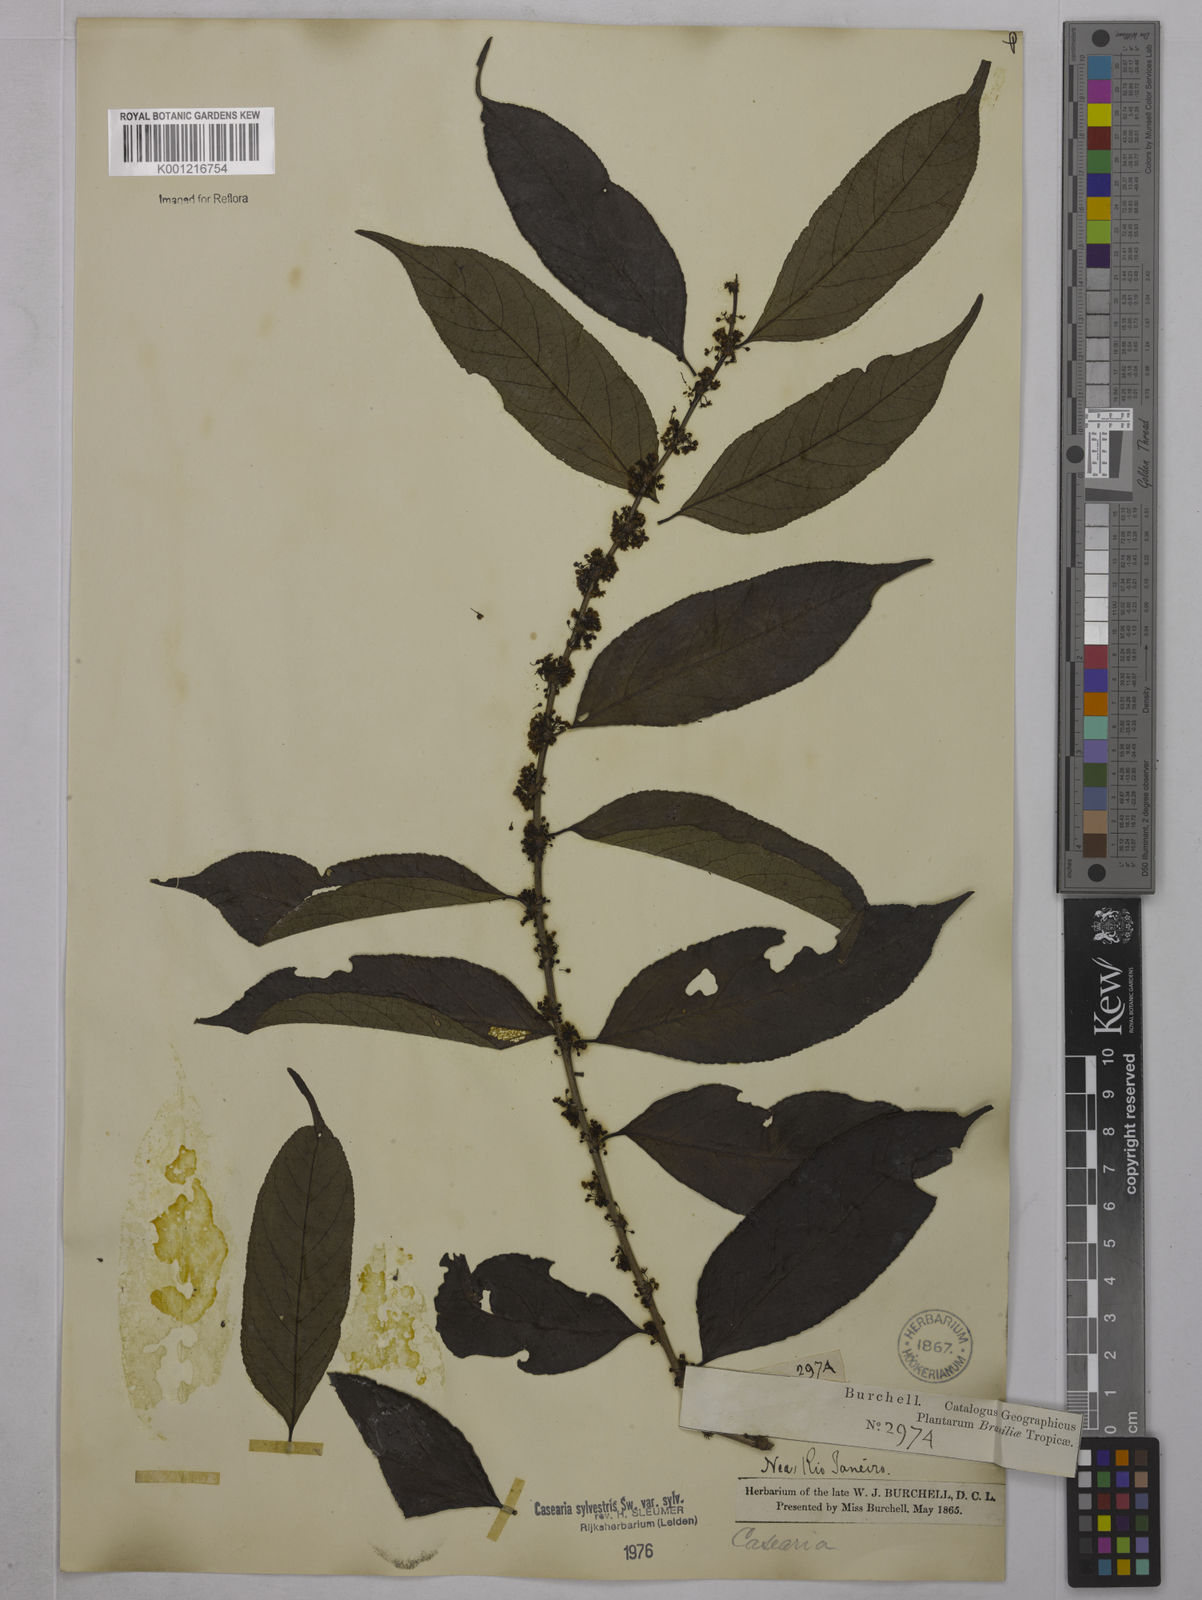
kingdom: Plantae
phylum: Tracheophyta
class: Magnoliopsida
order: Malpighiales
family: Salicaceae
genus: Casearia
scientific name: Casearia sylvestris
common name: Wild sage
